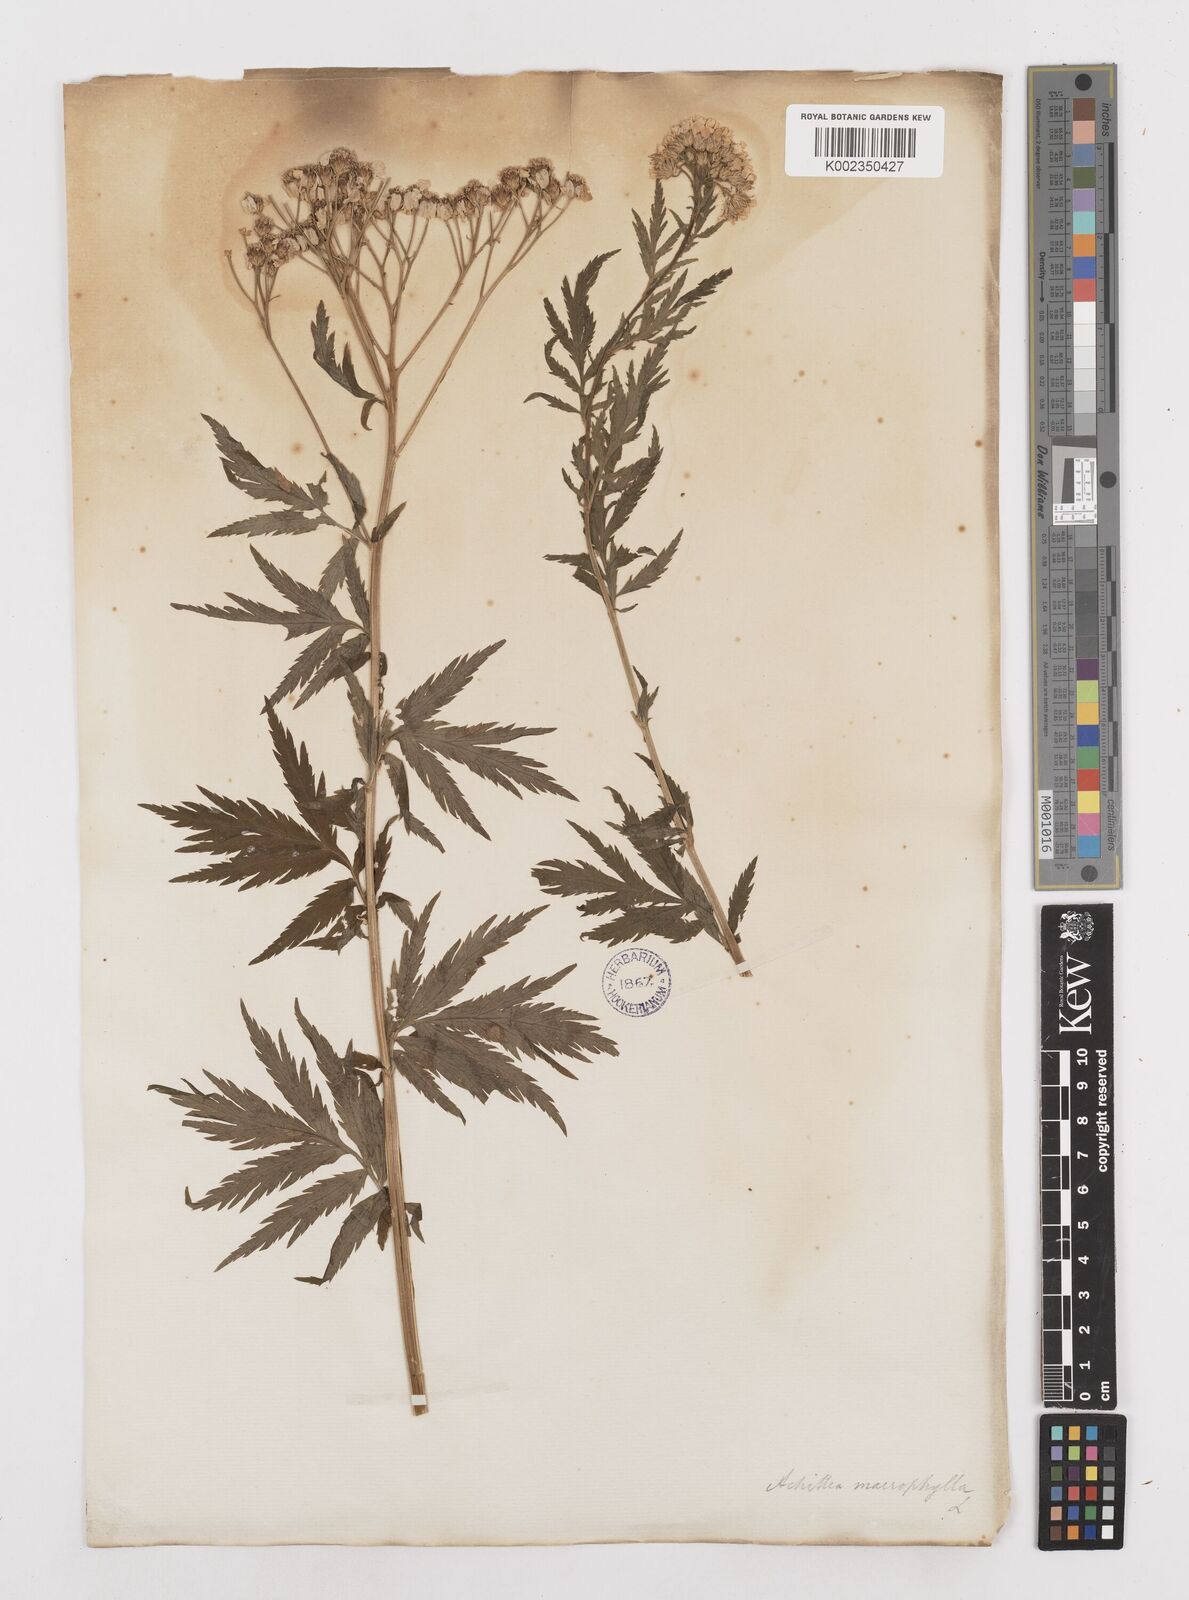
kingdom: Plantae
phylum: Tracheophyta
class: Magnoliopsida
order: Asterales
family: Asteraceae
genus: Achillea
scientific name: Achillea macrophylla
